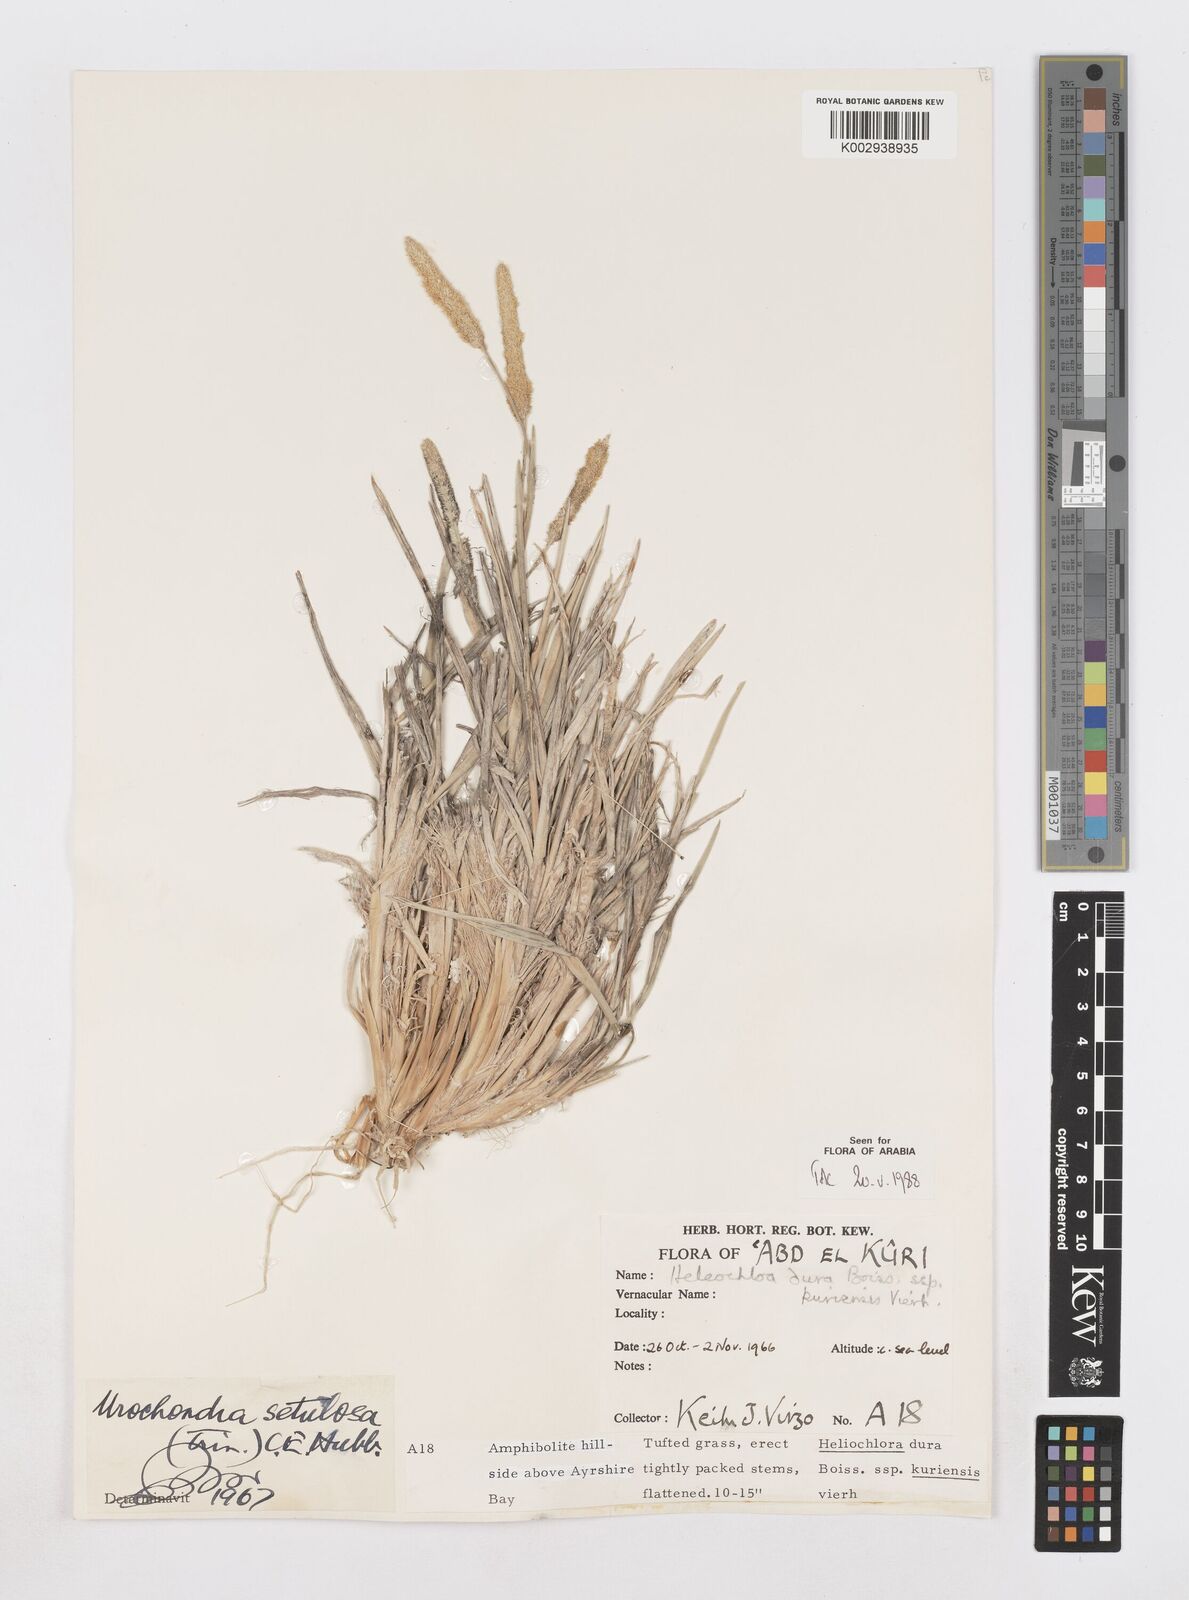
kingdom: Plantae
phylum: Tracheophyta
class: Liliopsida
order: Poales
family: Poaceae
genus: Urochondra
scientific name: Urochondra setulosa
